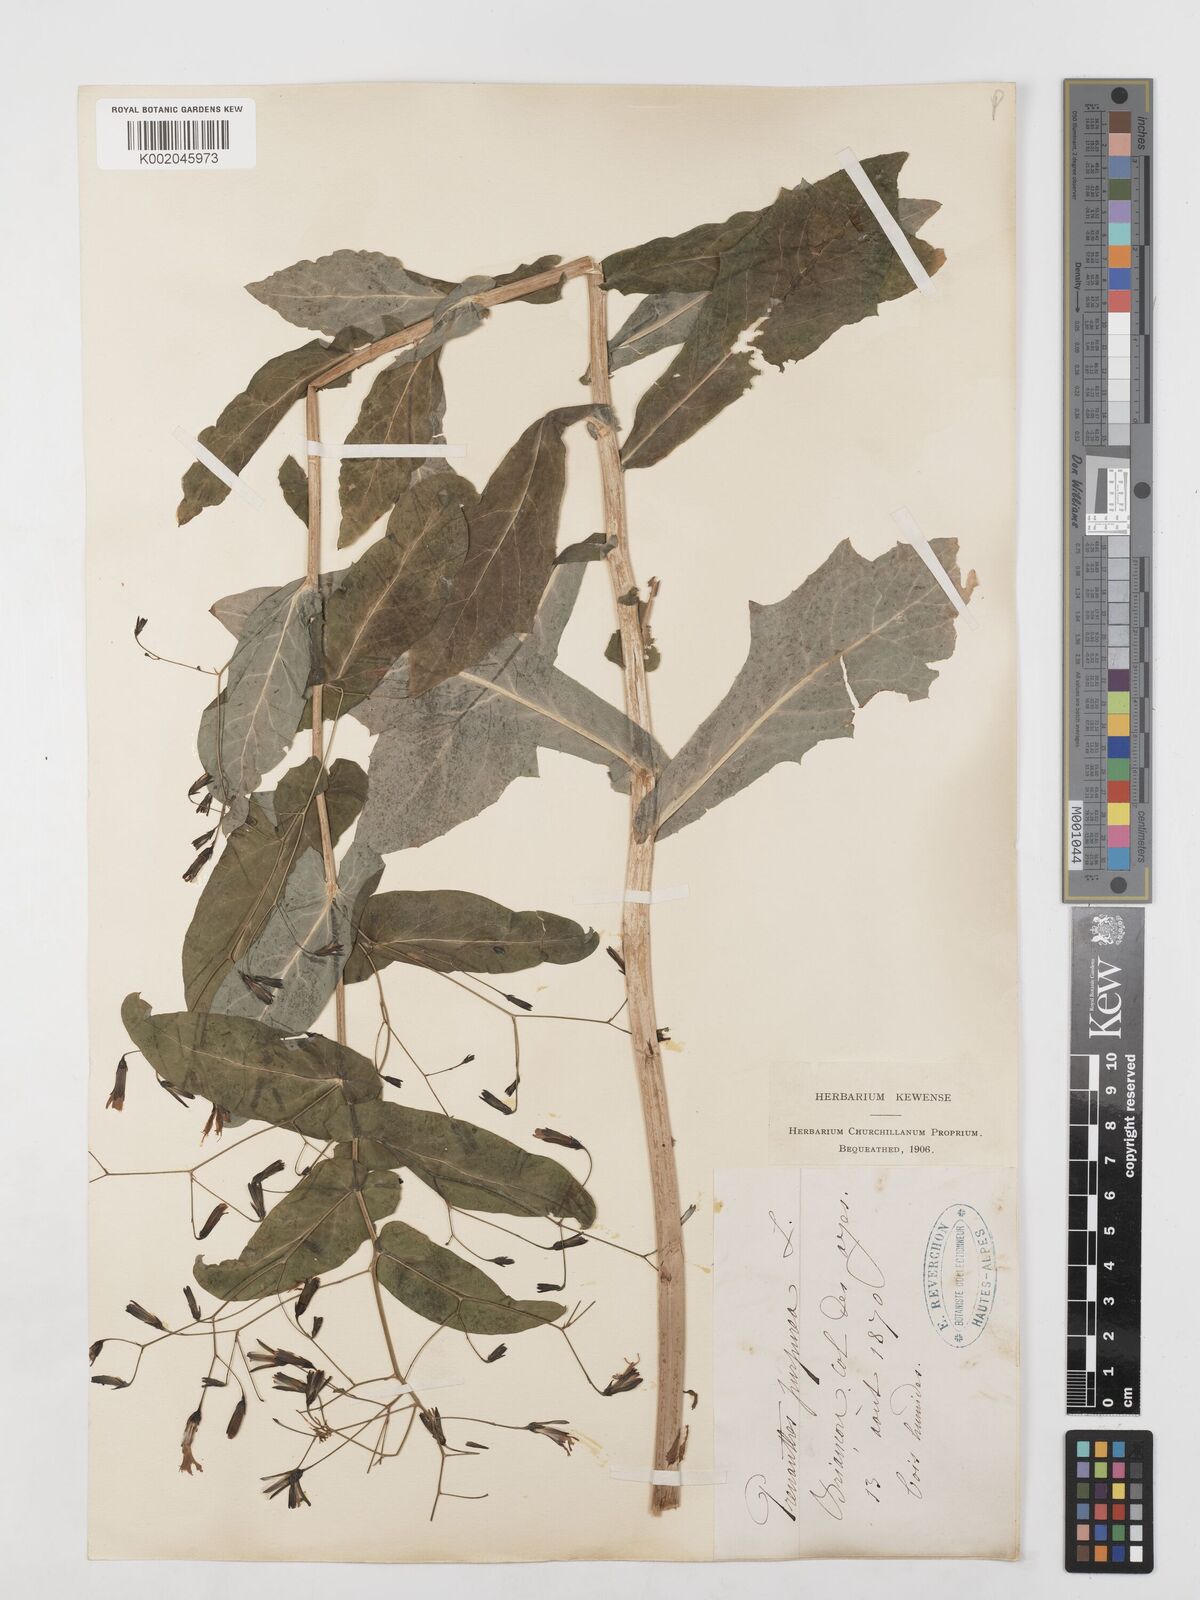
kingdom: Plantae
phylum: Tracheophyta
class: Magnoliopsida
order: Asterales
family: Asteraceae
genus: Prenanthes
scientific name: Prenanthes purpurea
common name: Purple lettuce
